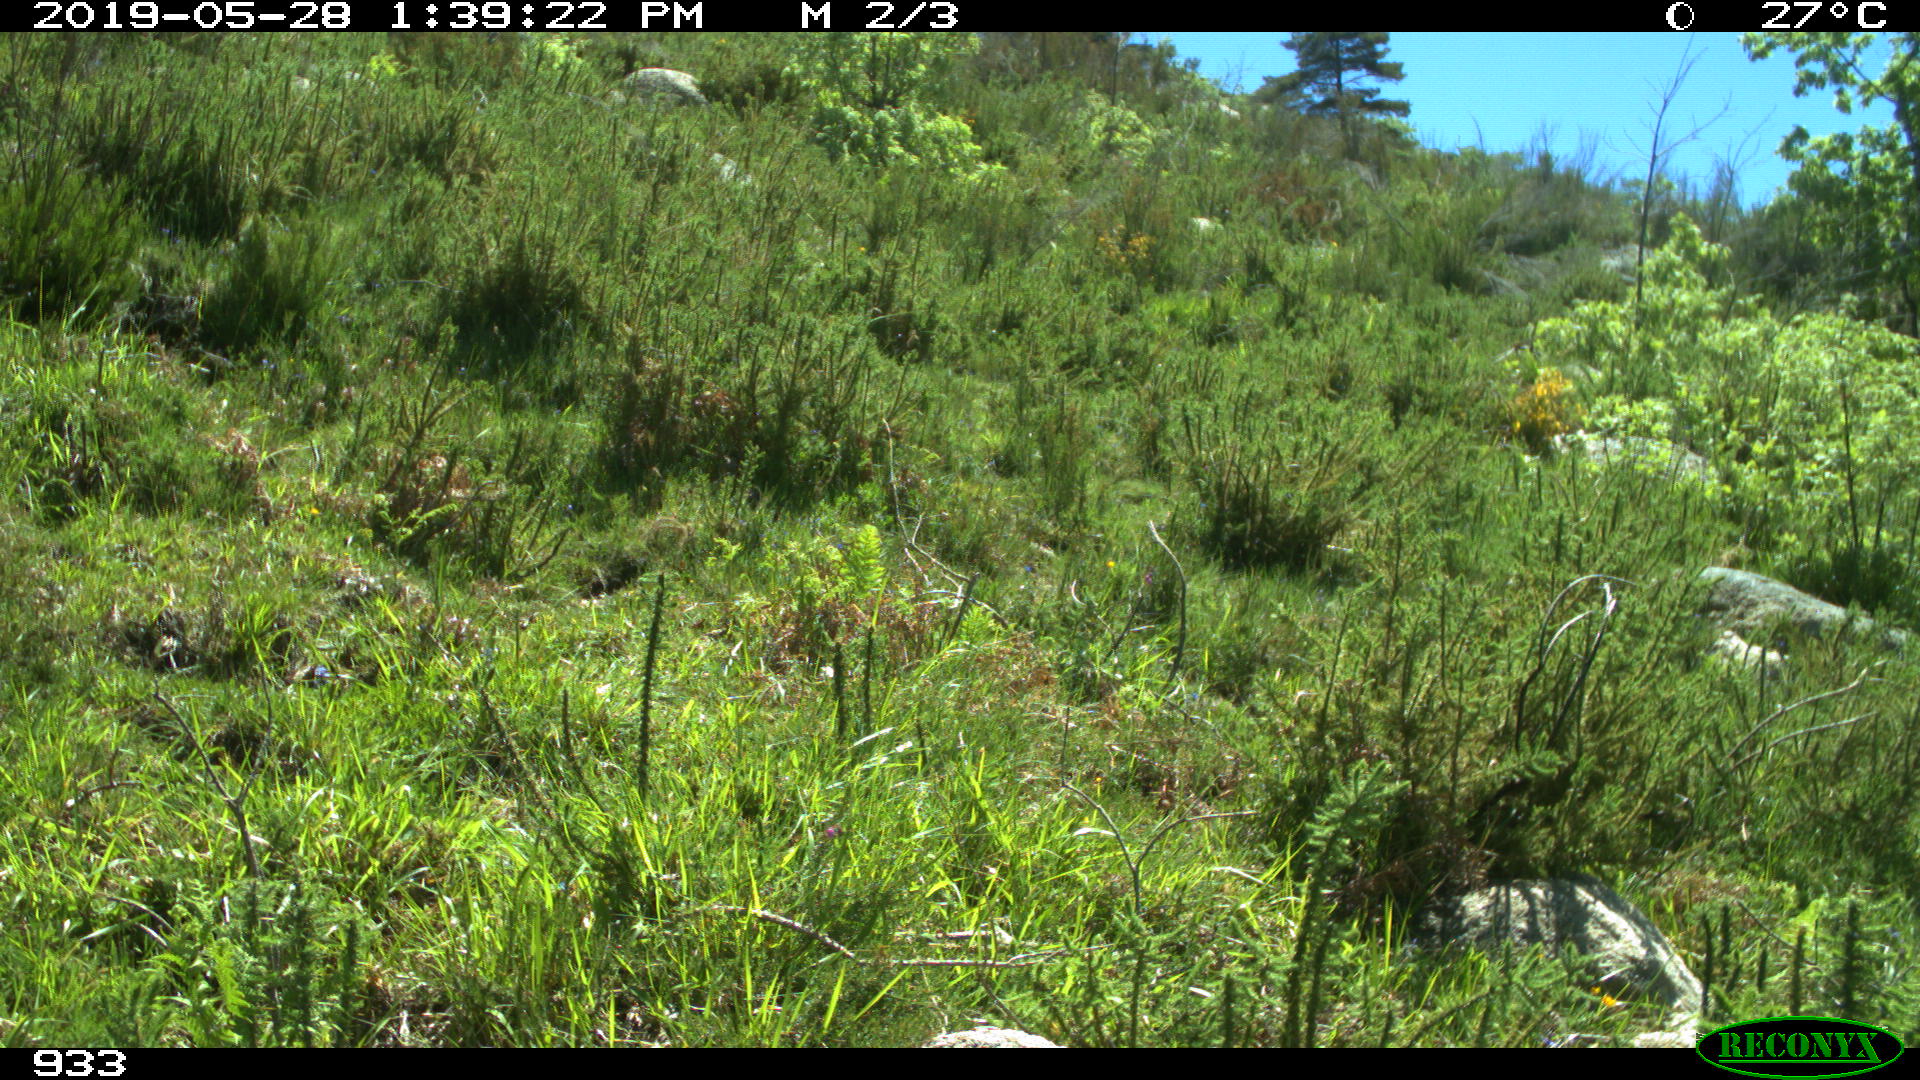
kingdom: Animalia
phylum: Chordata
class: Mammalia
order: Perissodactyla
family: Equidae
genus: Equus
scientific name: Equus caballus
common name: Horse
